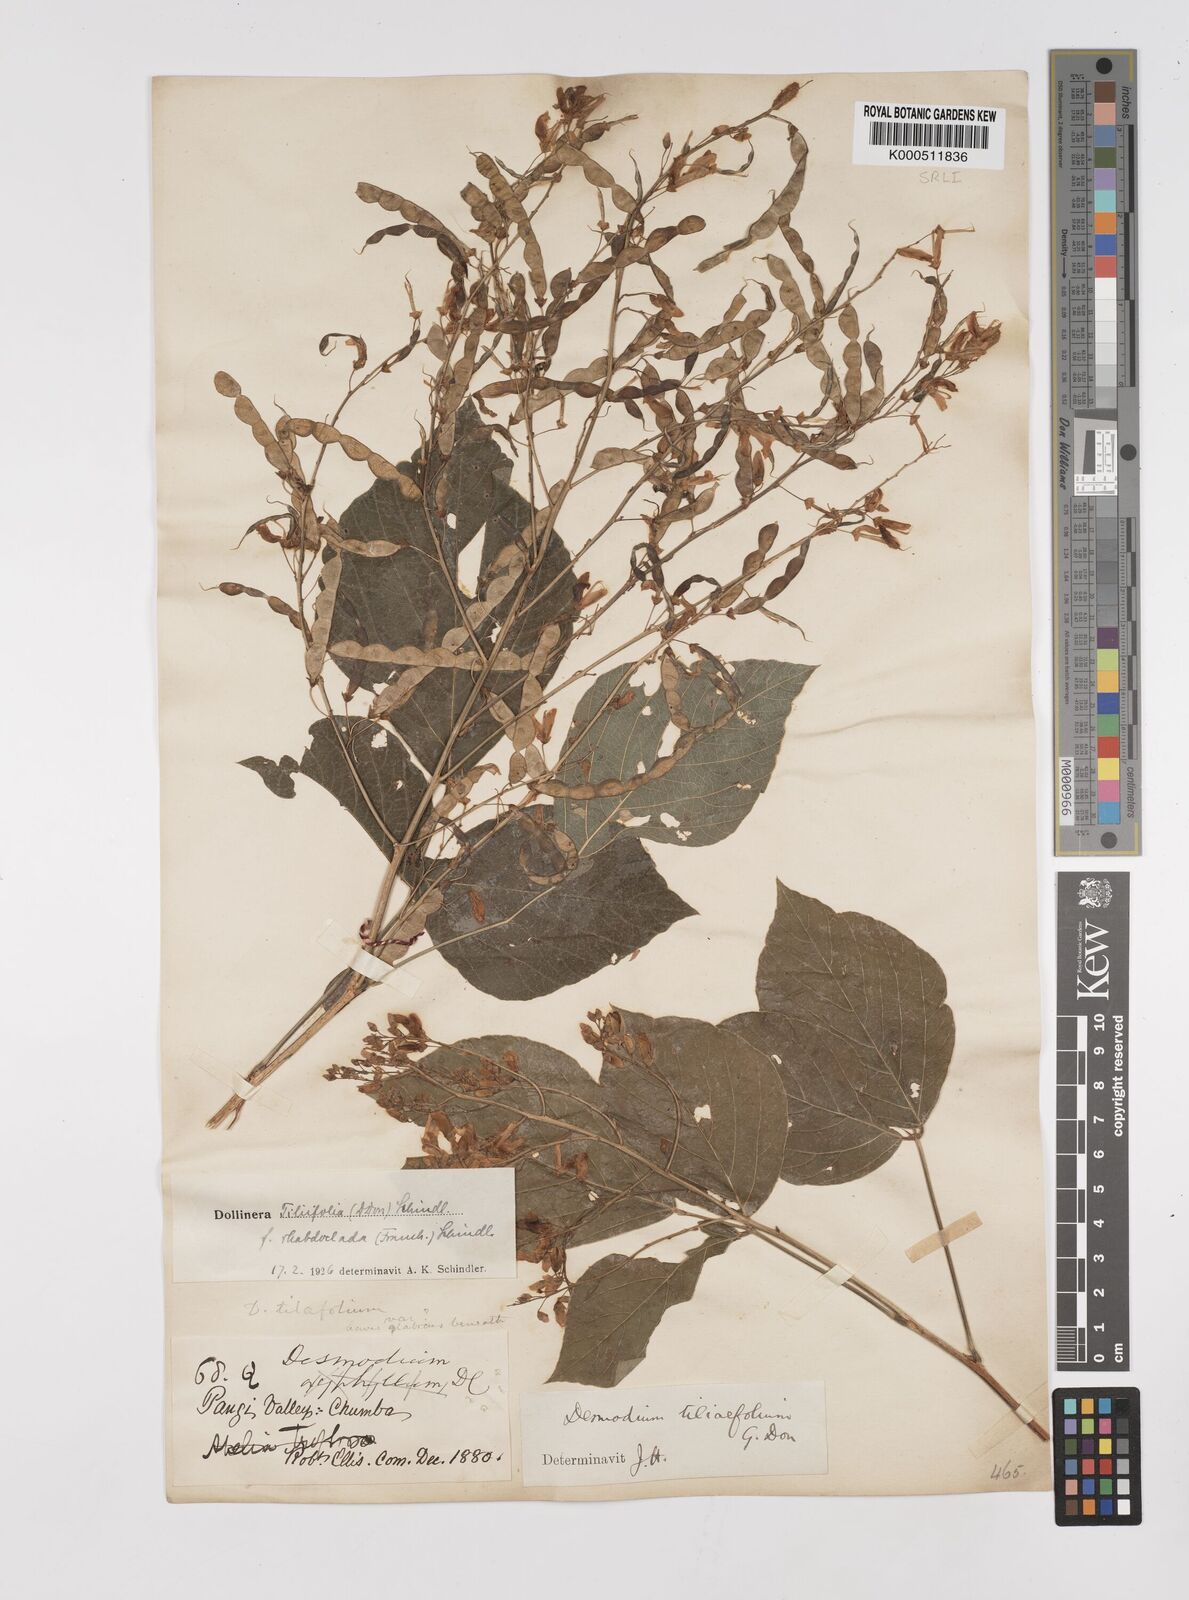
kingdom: Plantae
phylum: Tracheophyta
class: Magnoliopsida
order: Fabales
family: Fabaceae
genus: Sunhangia
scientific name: Sunhangia elegans
